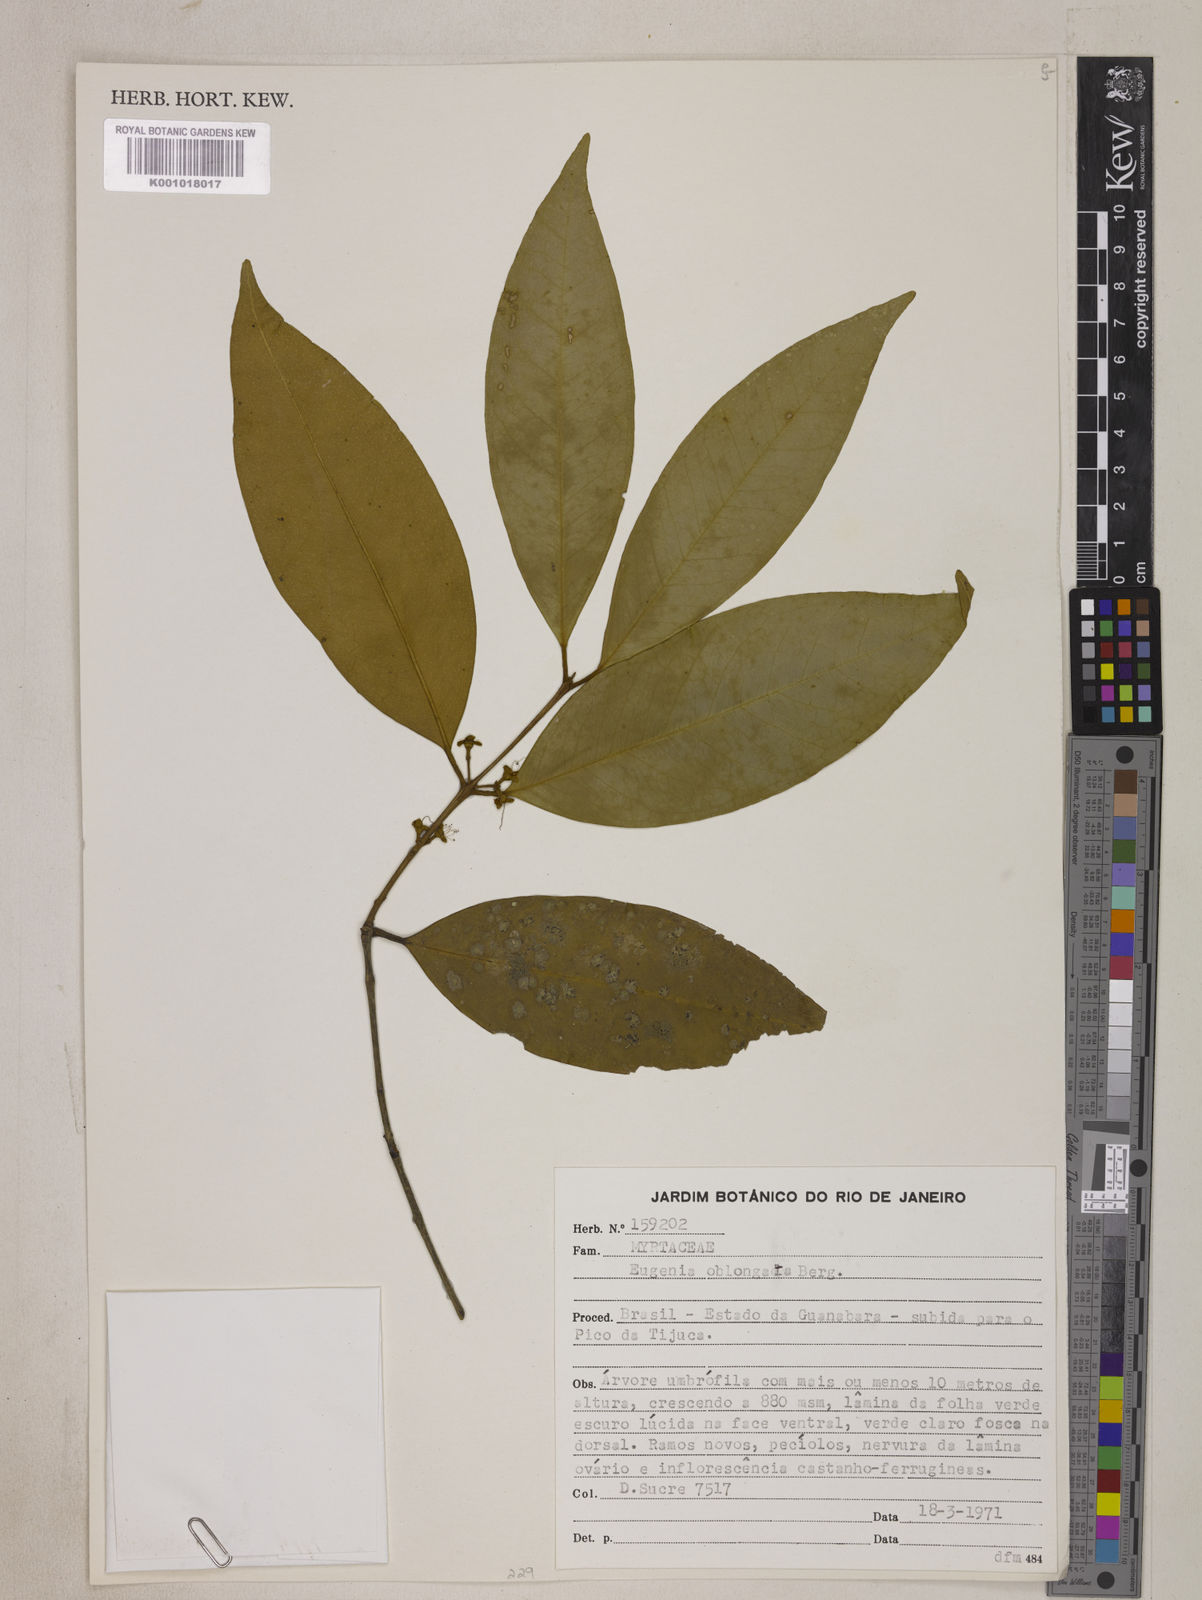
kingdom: Plantae
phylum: Tracheophyta
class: Magnoliopsida
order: Myrtales
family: Myrtaceae
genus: Eugenia
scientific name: Eugenia oblongata
